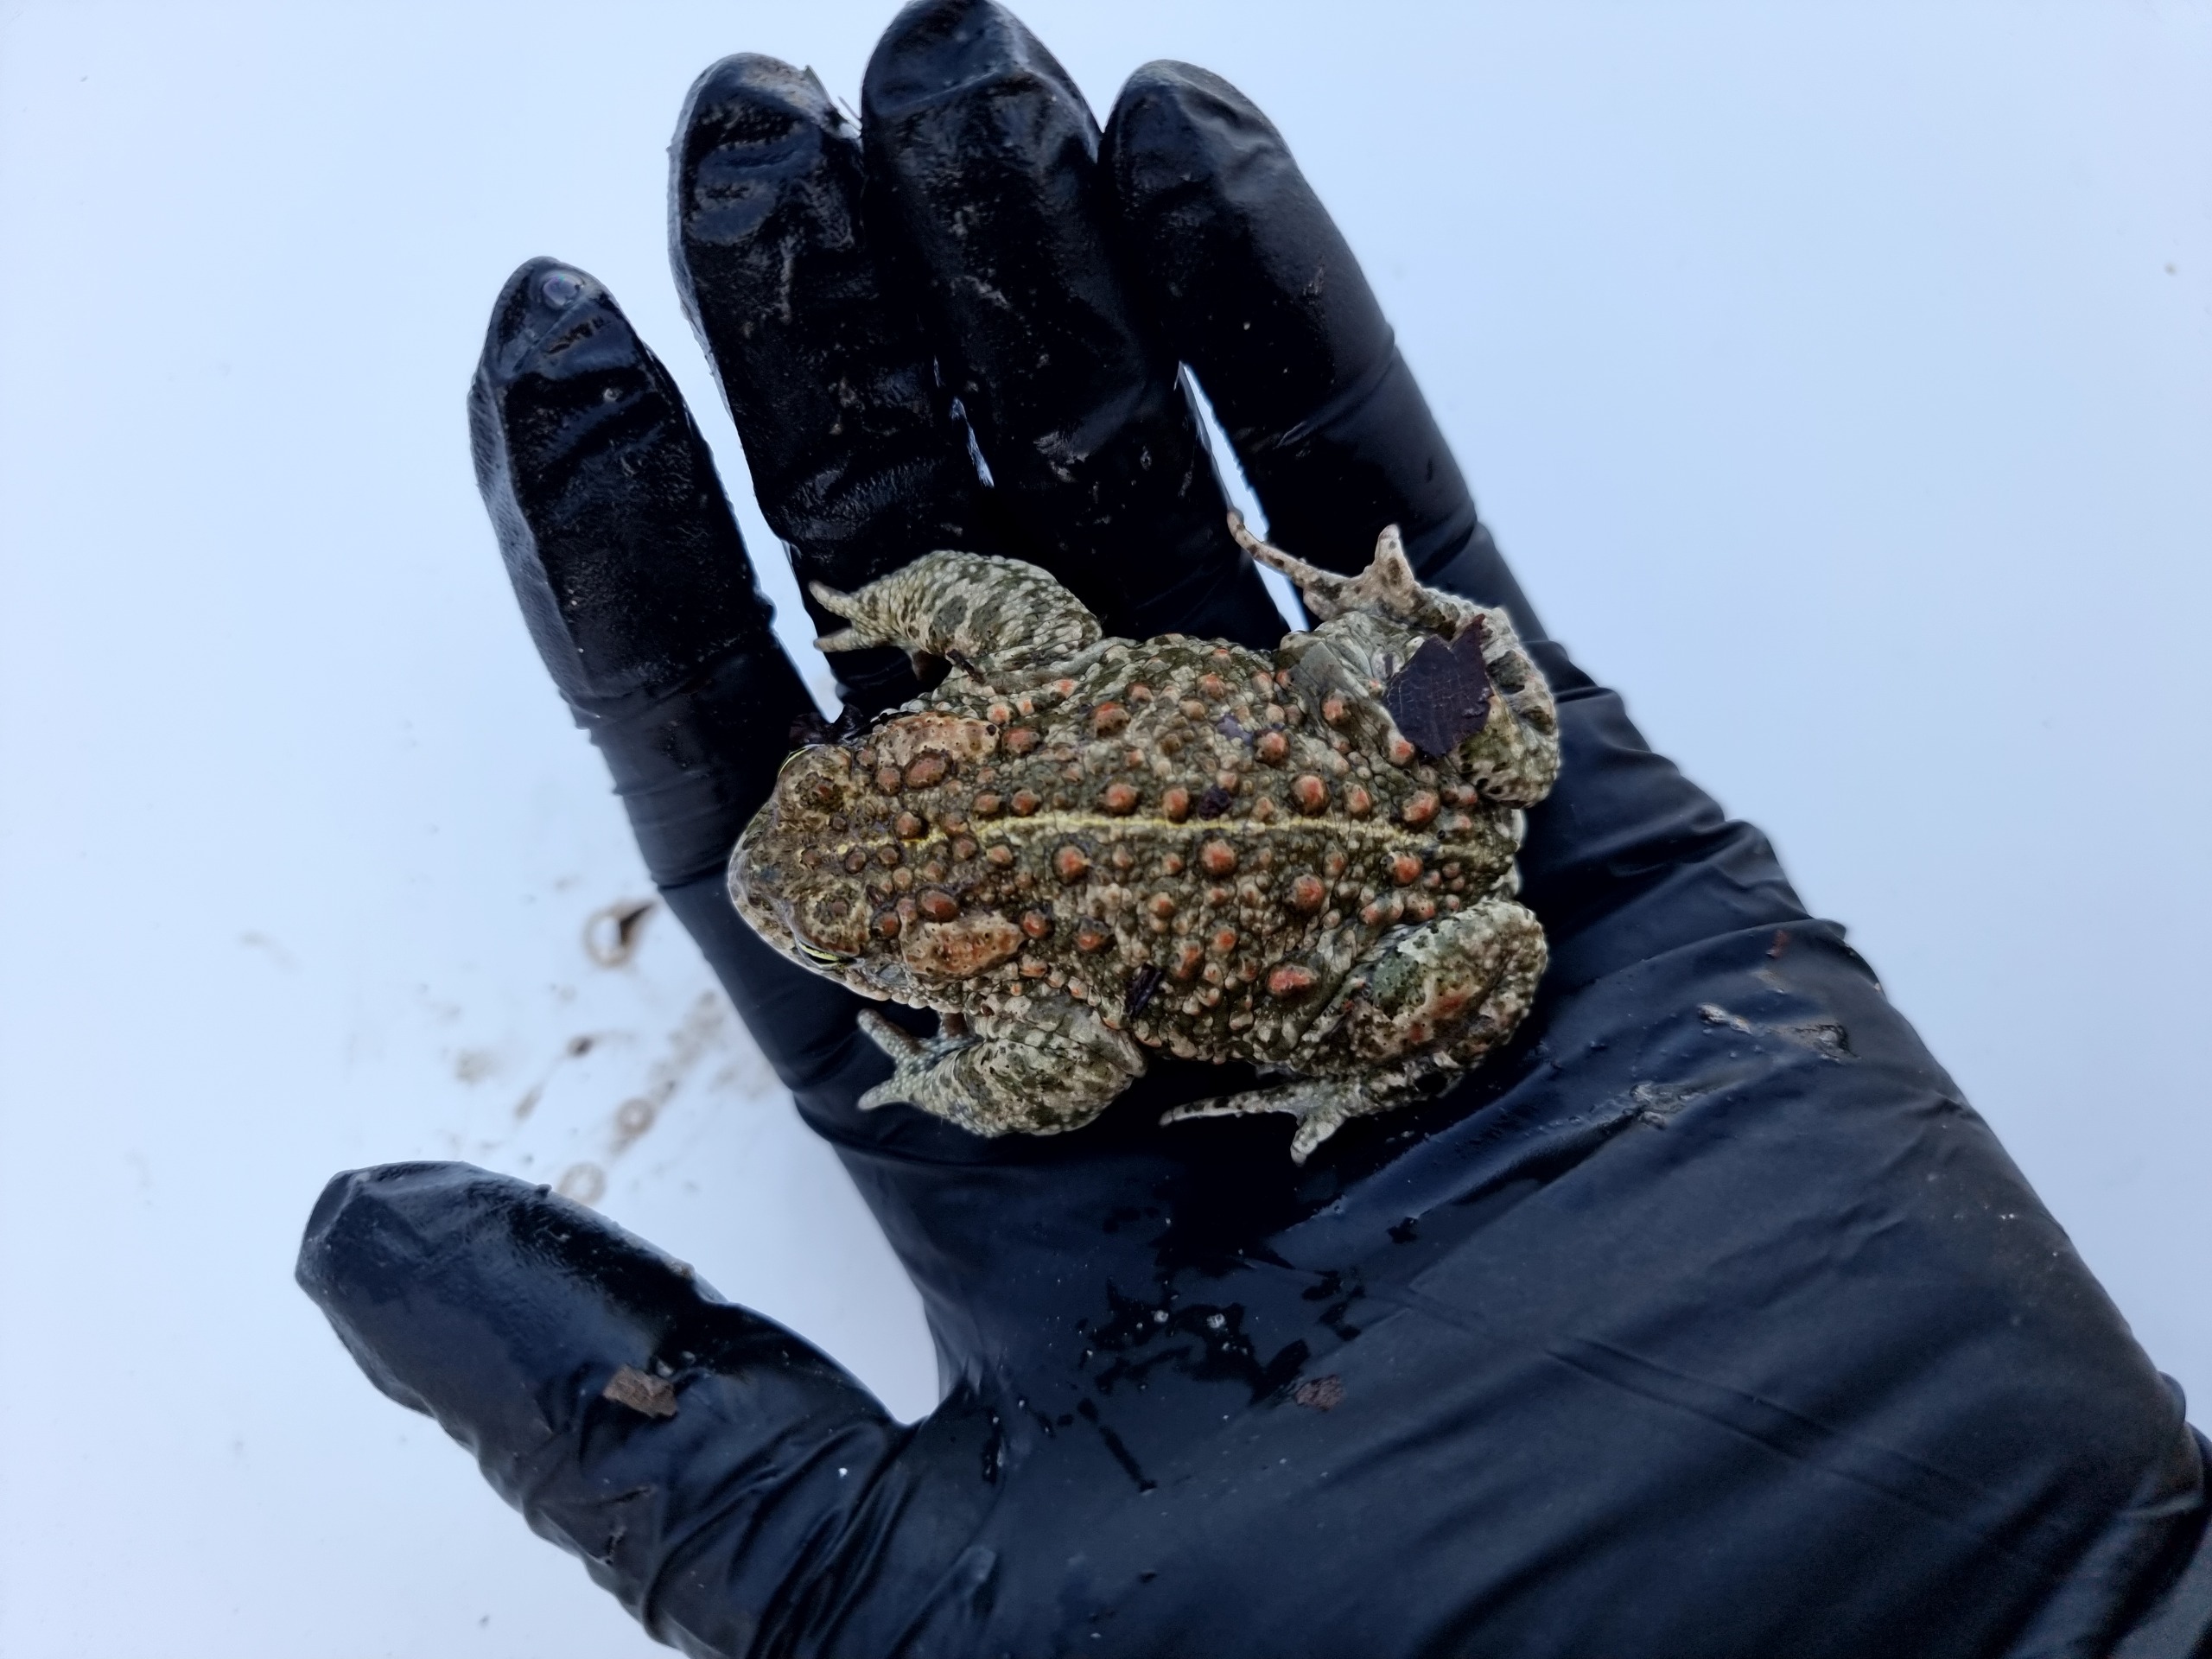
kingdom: Animalia
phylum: Chordata
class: Amphibia
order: Anura
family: Bufonidae
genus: Epidalea
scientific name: Epidalea calamita
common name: Strandtudse
